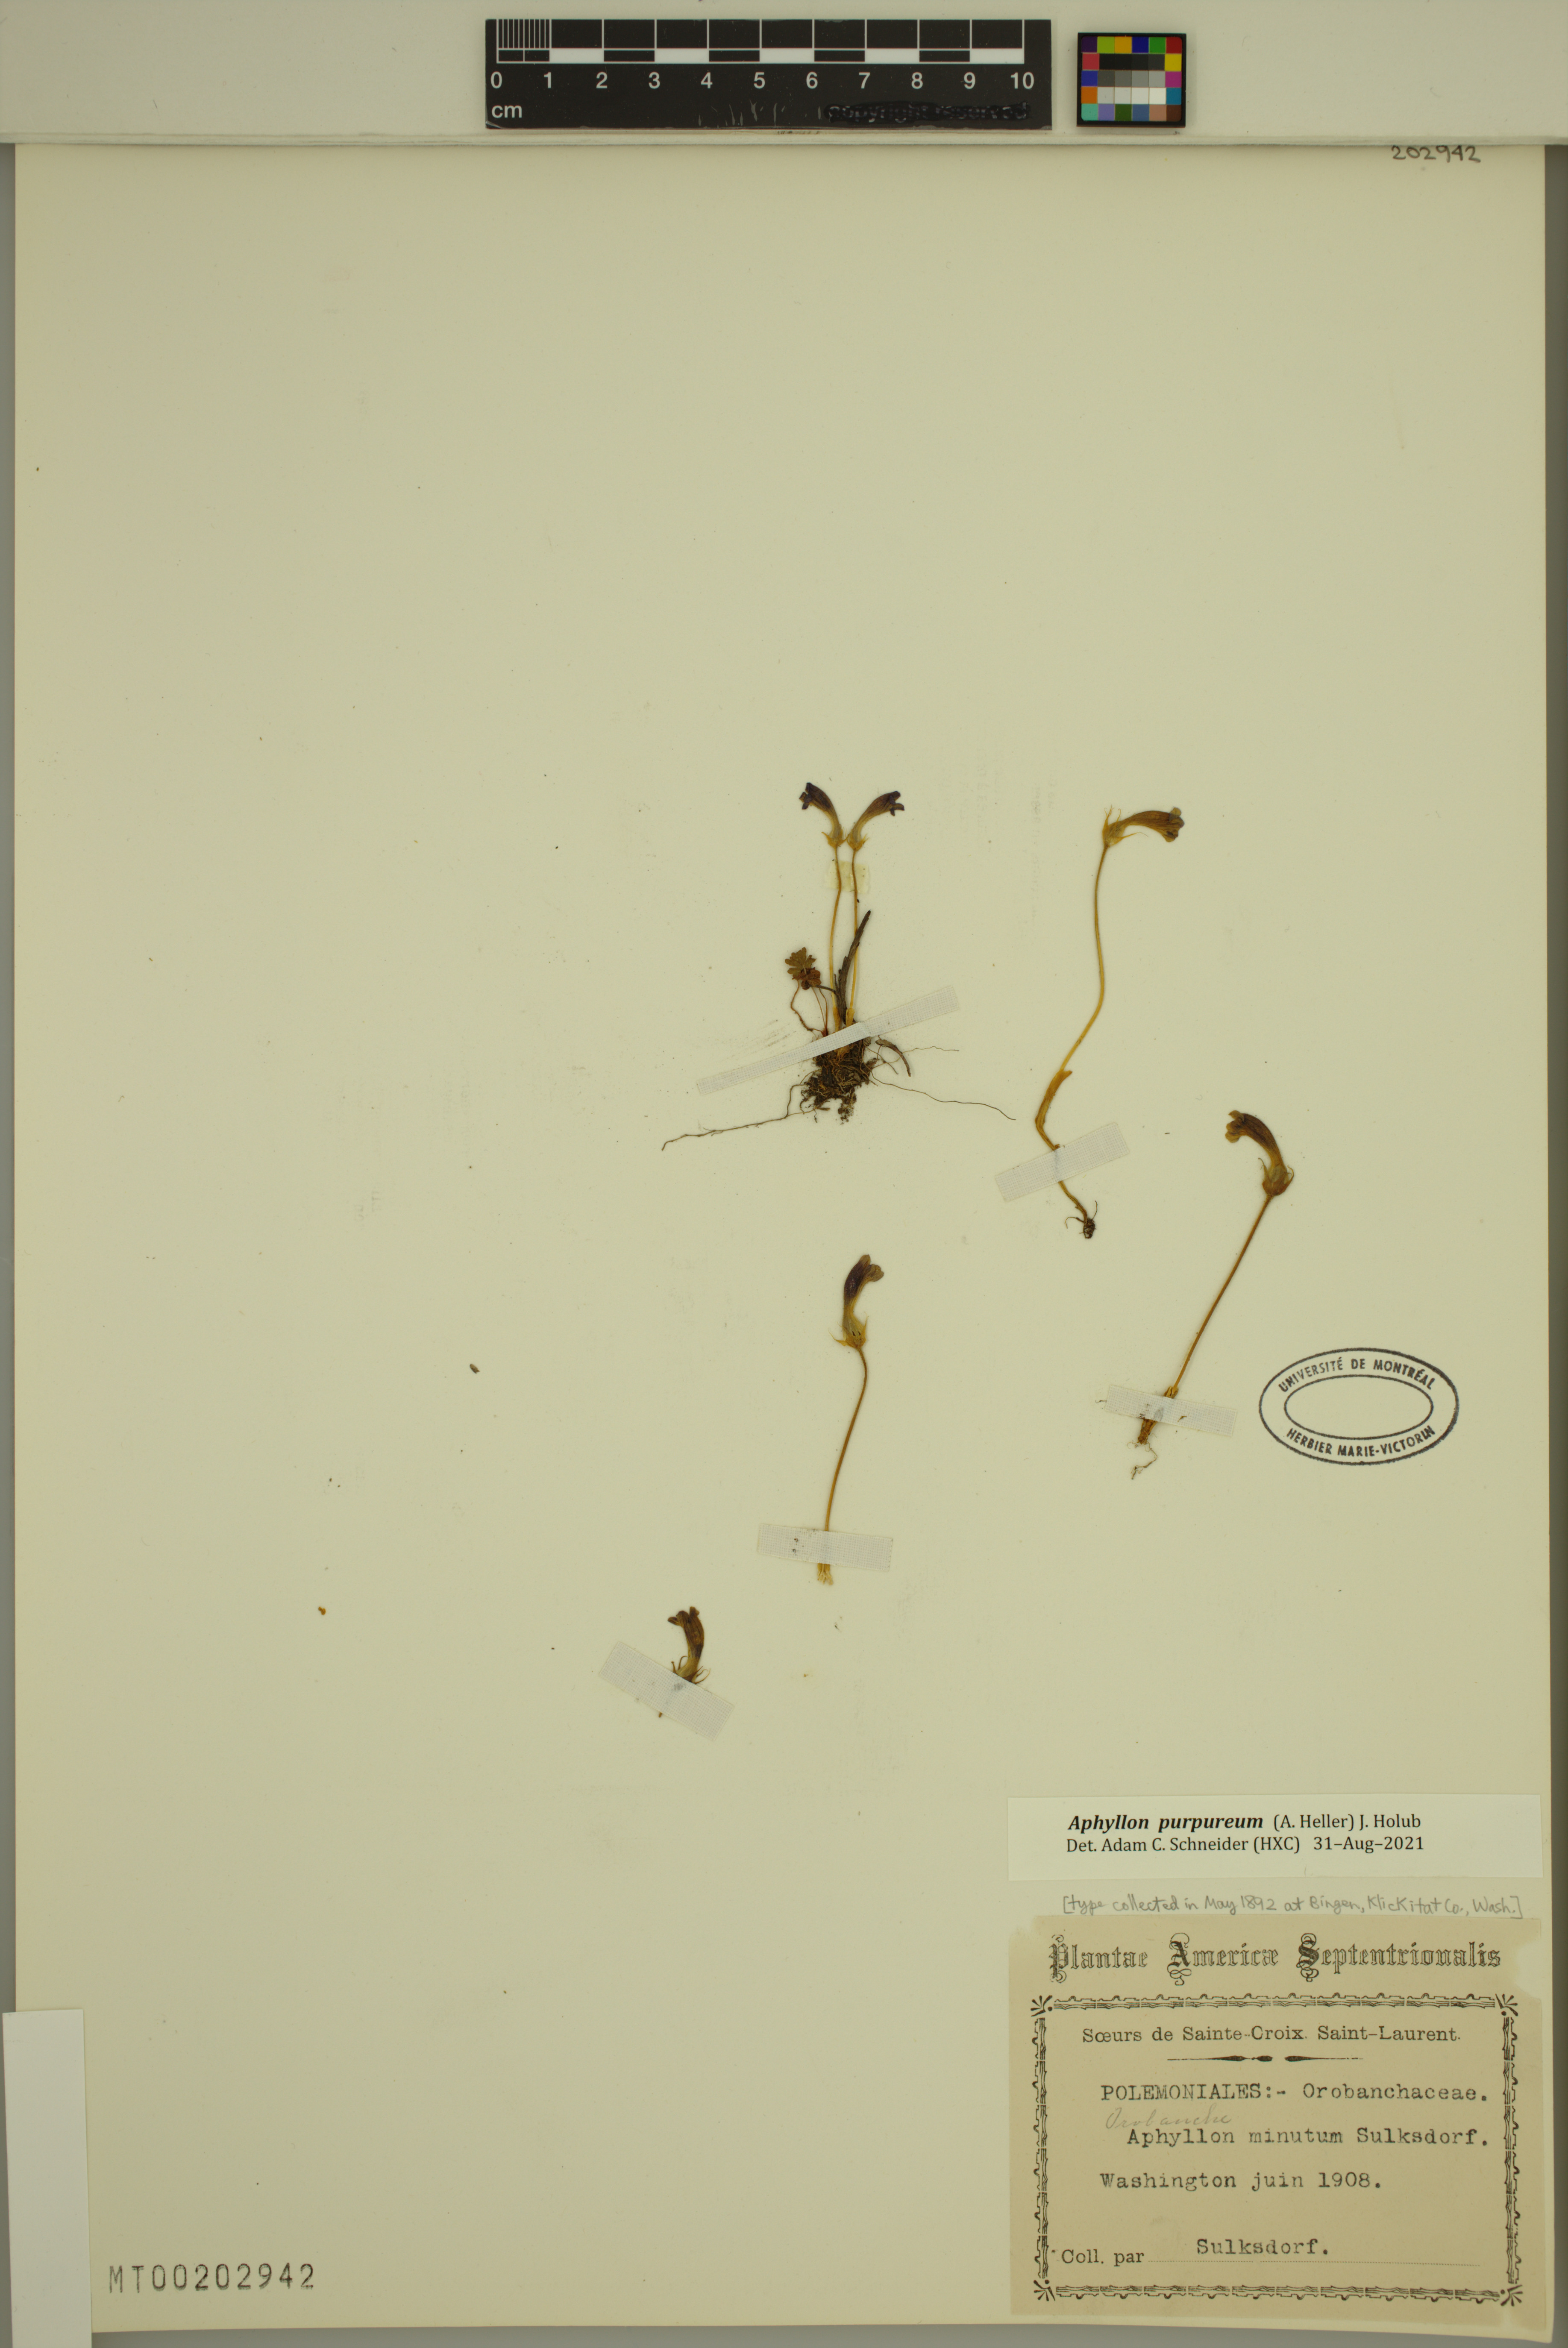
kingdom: Plantae
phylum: Tracheophyta
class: Magnoliopsida
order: Lamiales
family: Orobanchaceae
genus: Aphyllon
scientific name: Aphyllon uniflorum
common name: One-flowered broomrape
